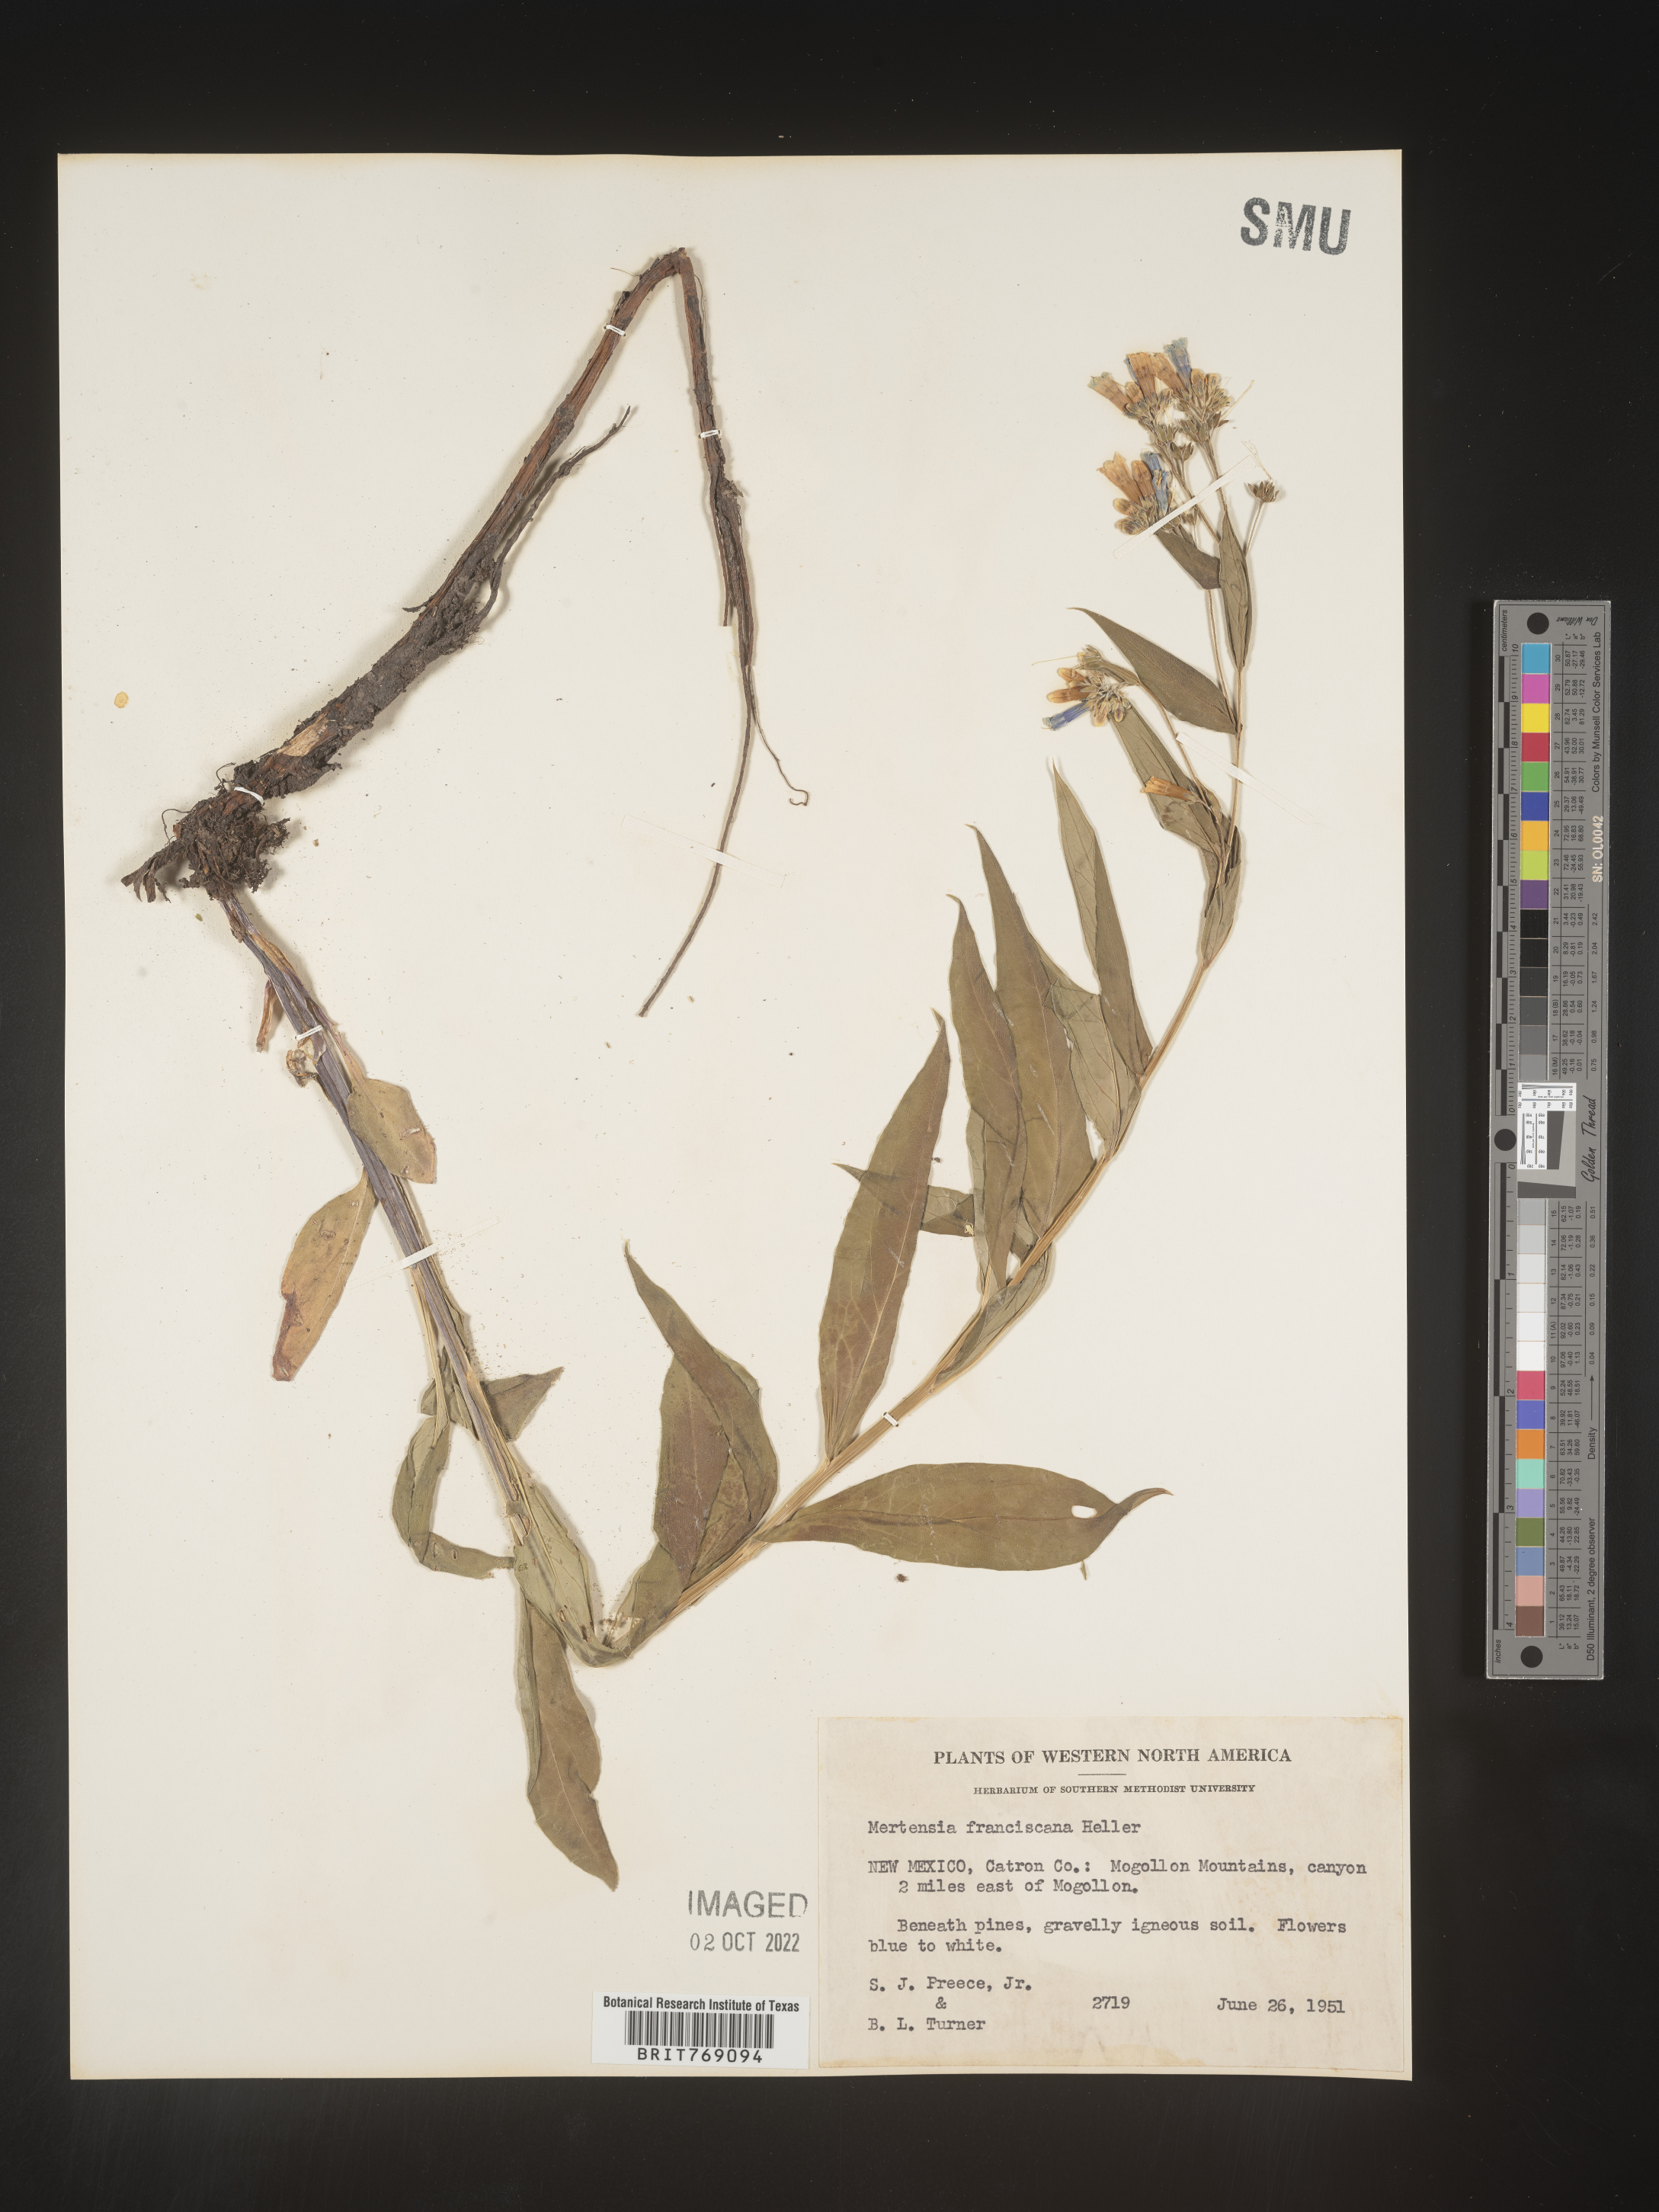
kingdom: Plantae
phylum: Tracheophyta
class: Magnoliopsida
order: Boraginales
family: Boraginaceae
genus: Mertensia
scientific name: Mertensia
